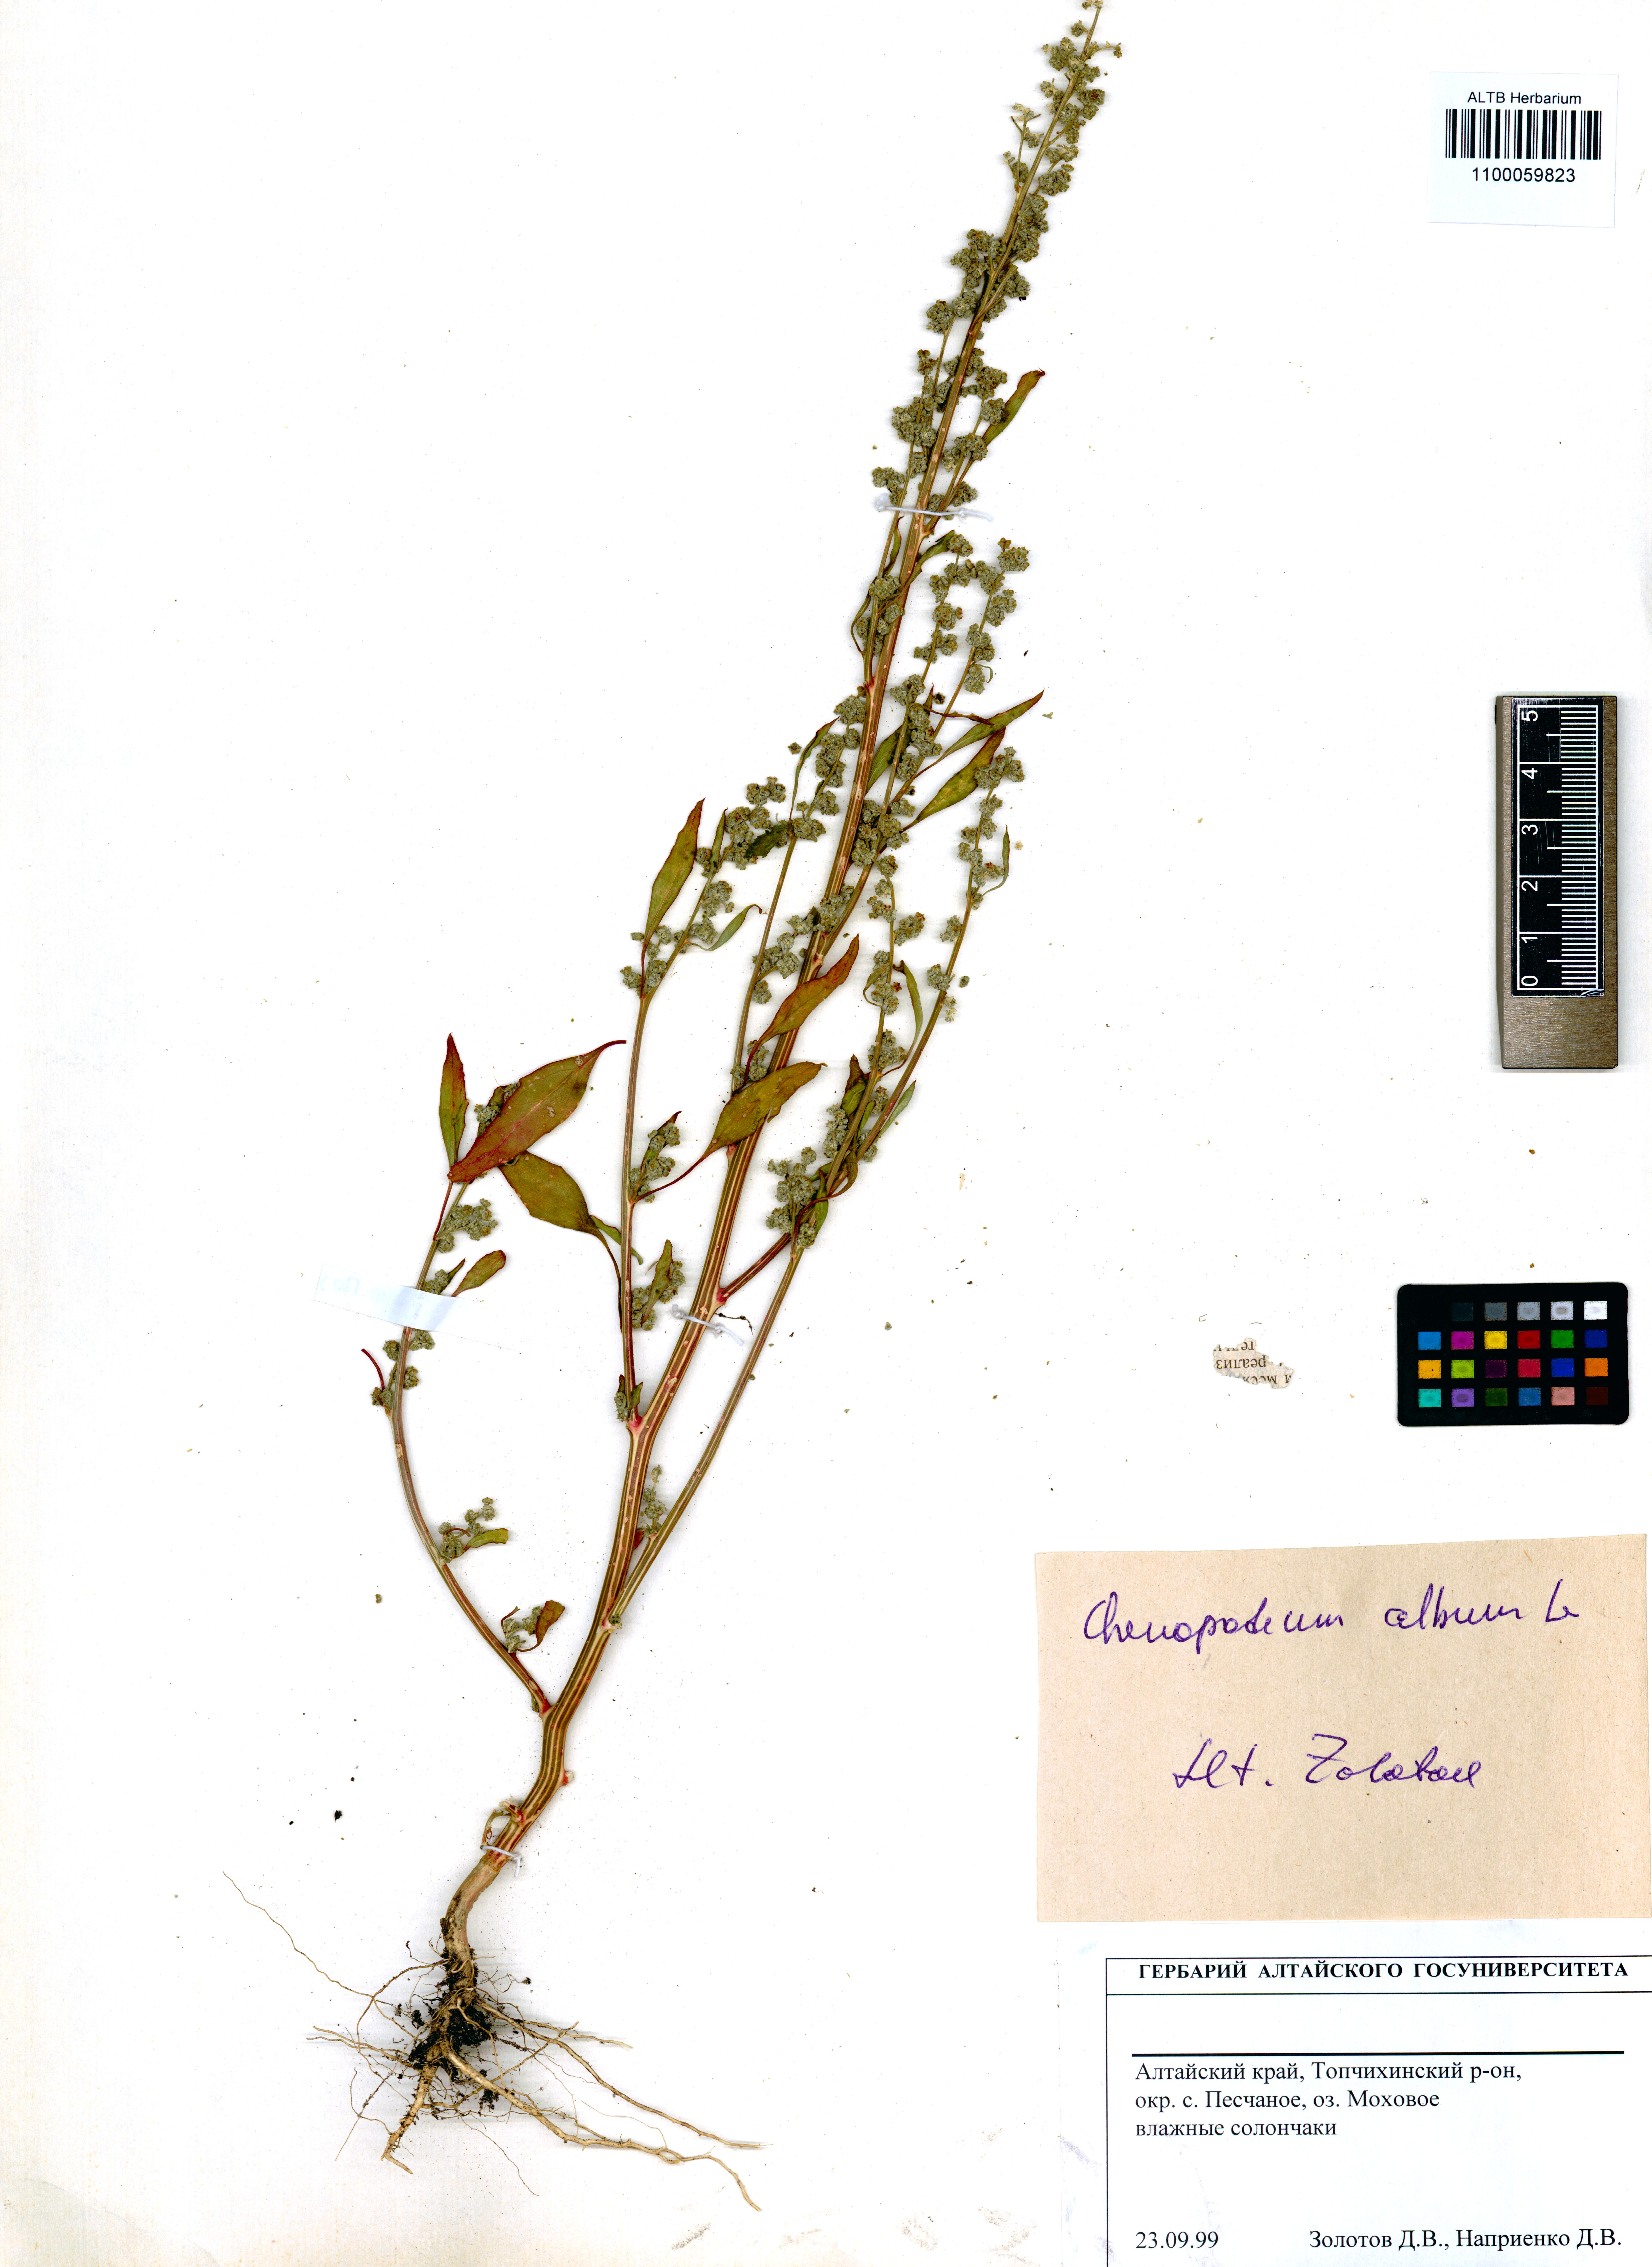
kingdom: Plantae
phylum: Tracheophyta
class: Magnoliopsida
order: Caryophyllales
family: Amaranthaceae
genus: Chenopodium
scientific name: Chenopodium album
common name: Fat-hen
